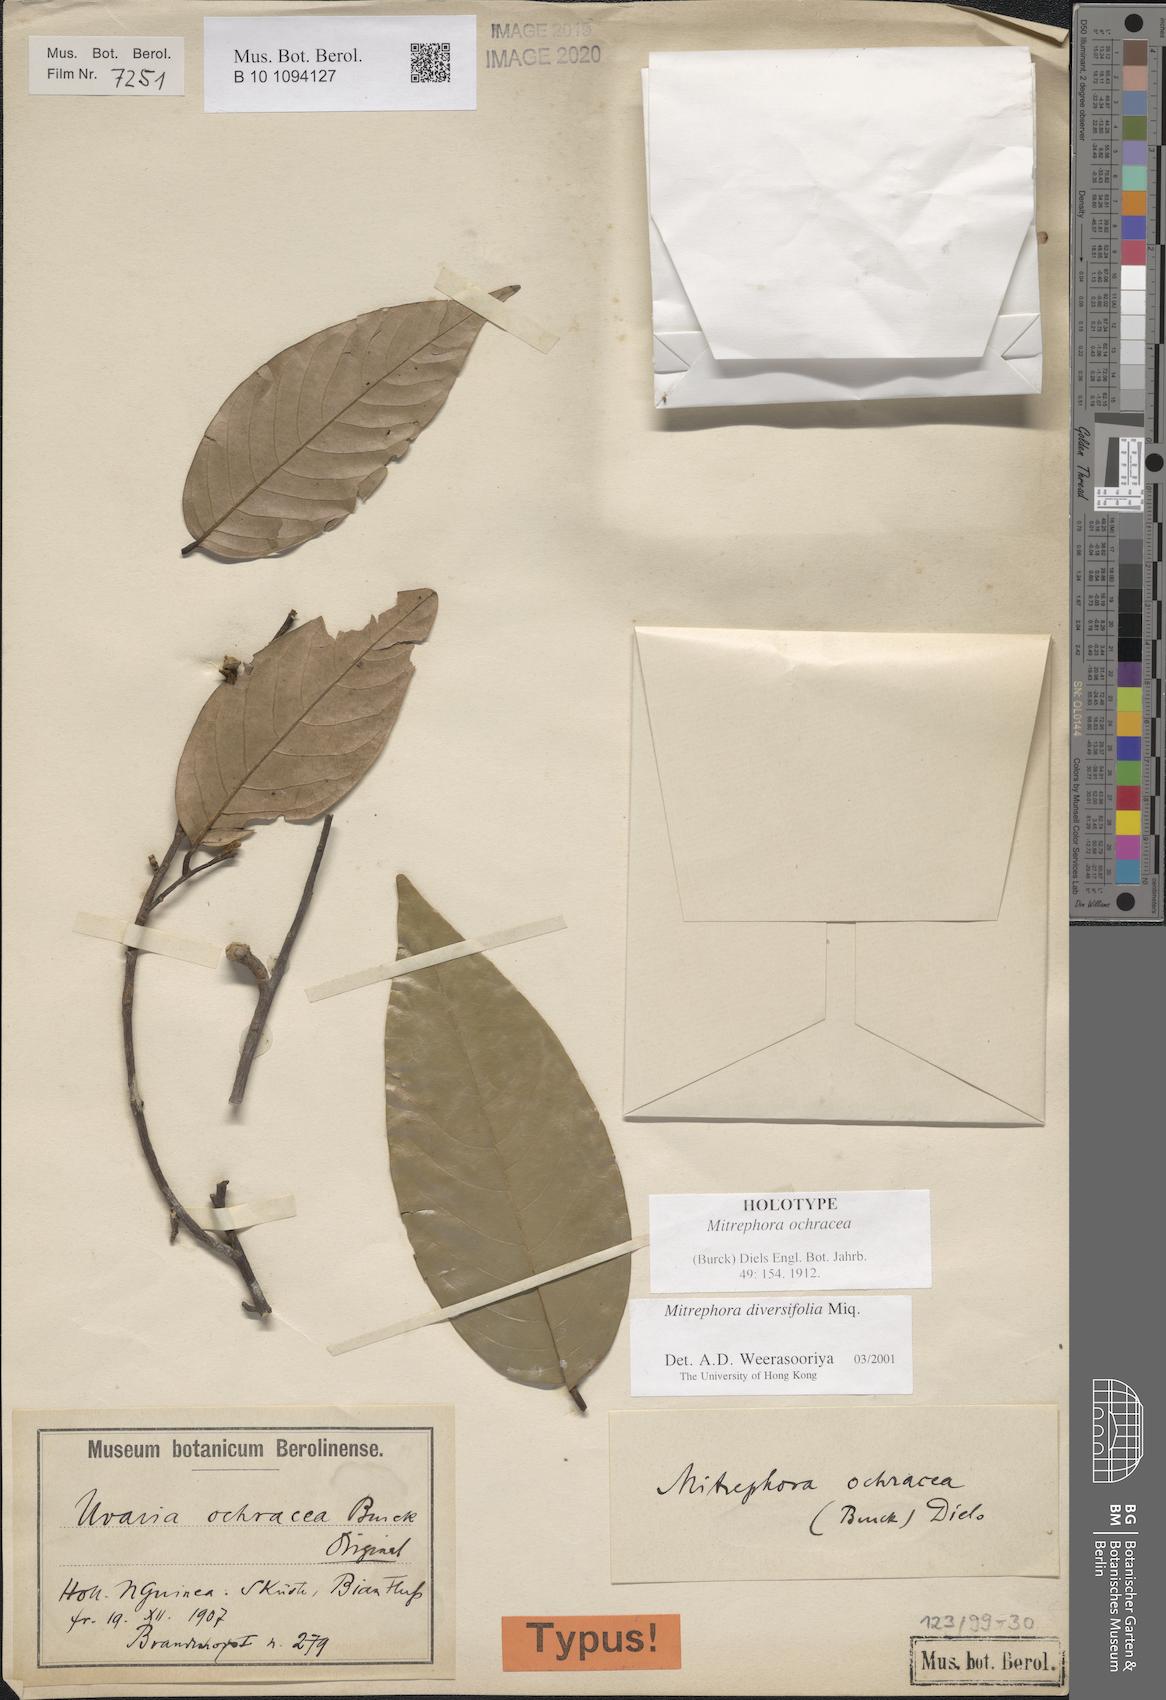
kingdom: Plantae
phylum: Tracheophyta
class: Magnoliopsida
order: Magnoliales
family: Annonaceae
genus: Mitrephora
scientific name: Mitrephora diversifolia
